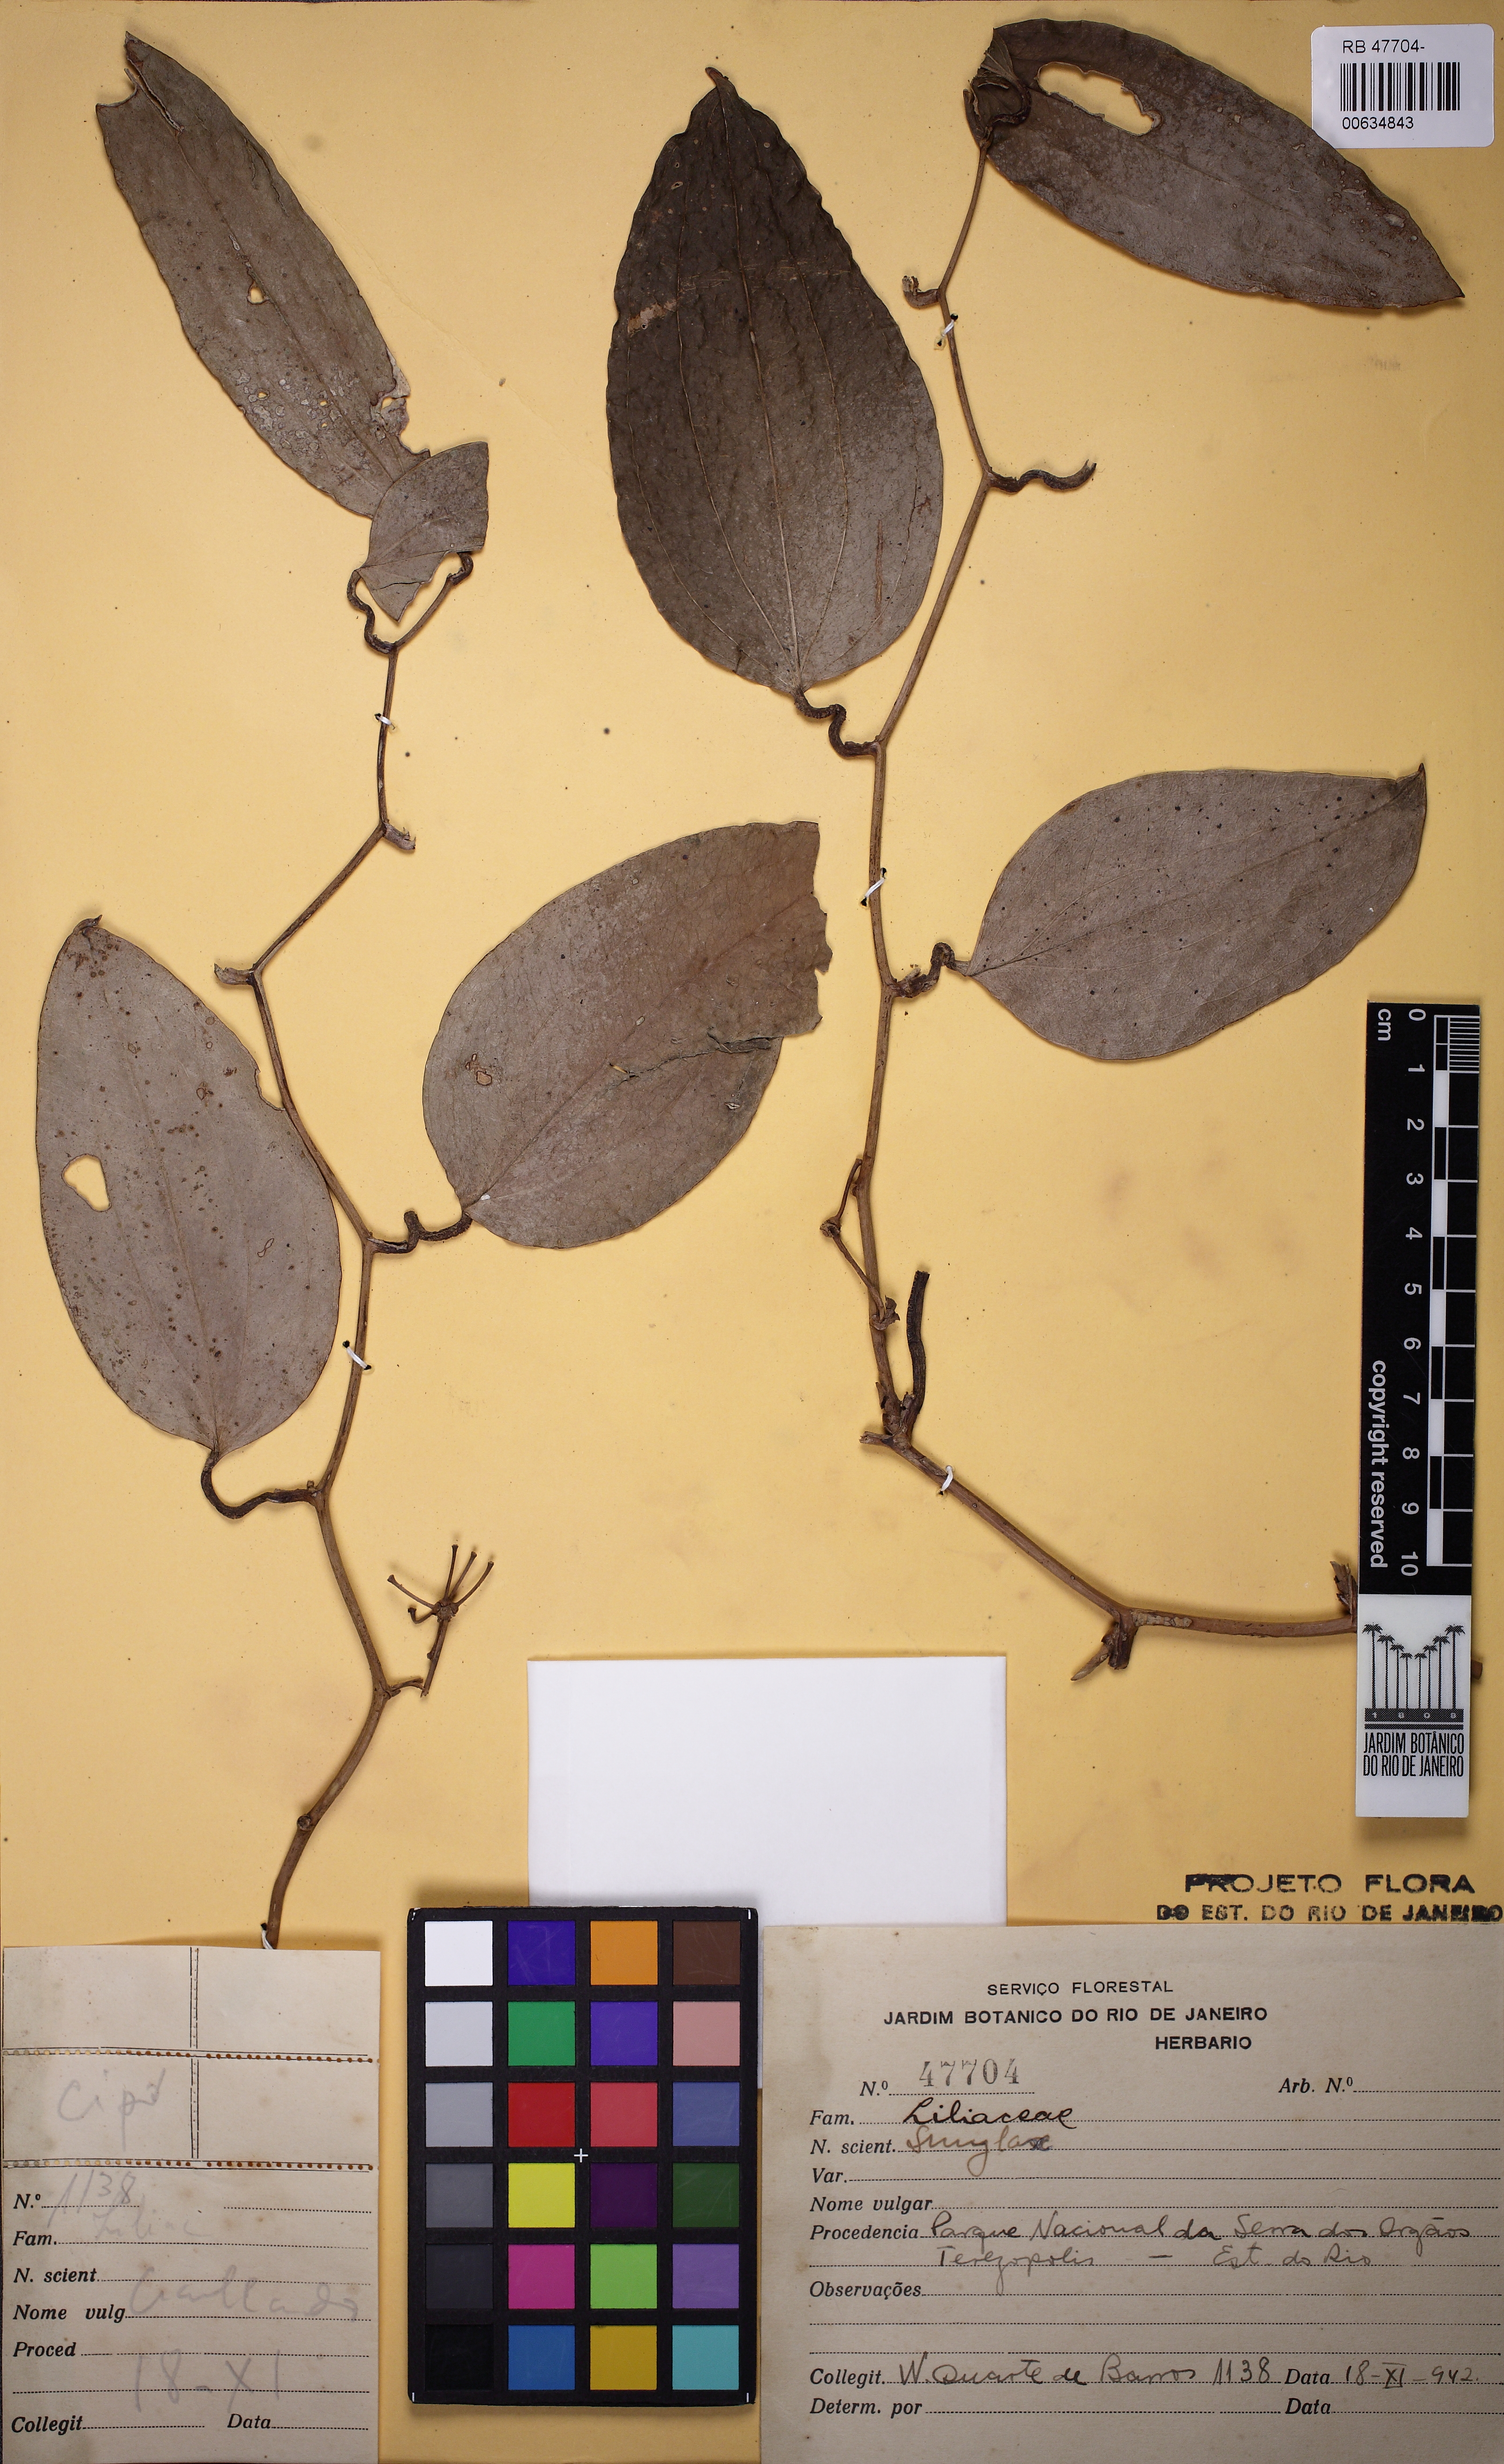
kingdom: Plantae
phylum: Tracheophyta
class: Liliopsida
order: Liliales
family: Smilacaceae
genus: Smilax
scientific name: Smilax
